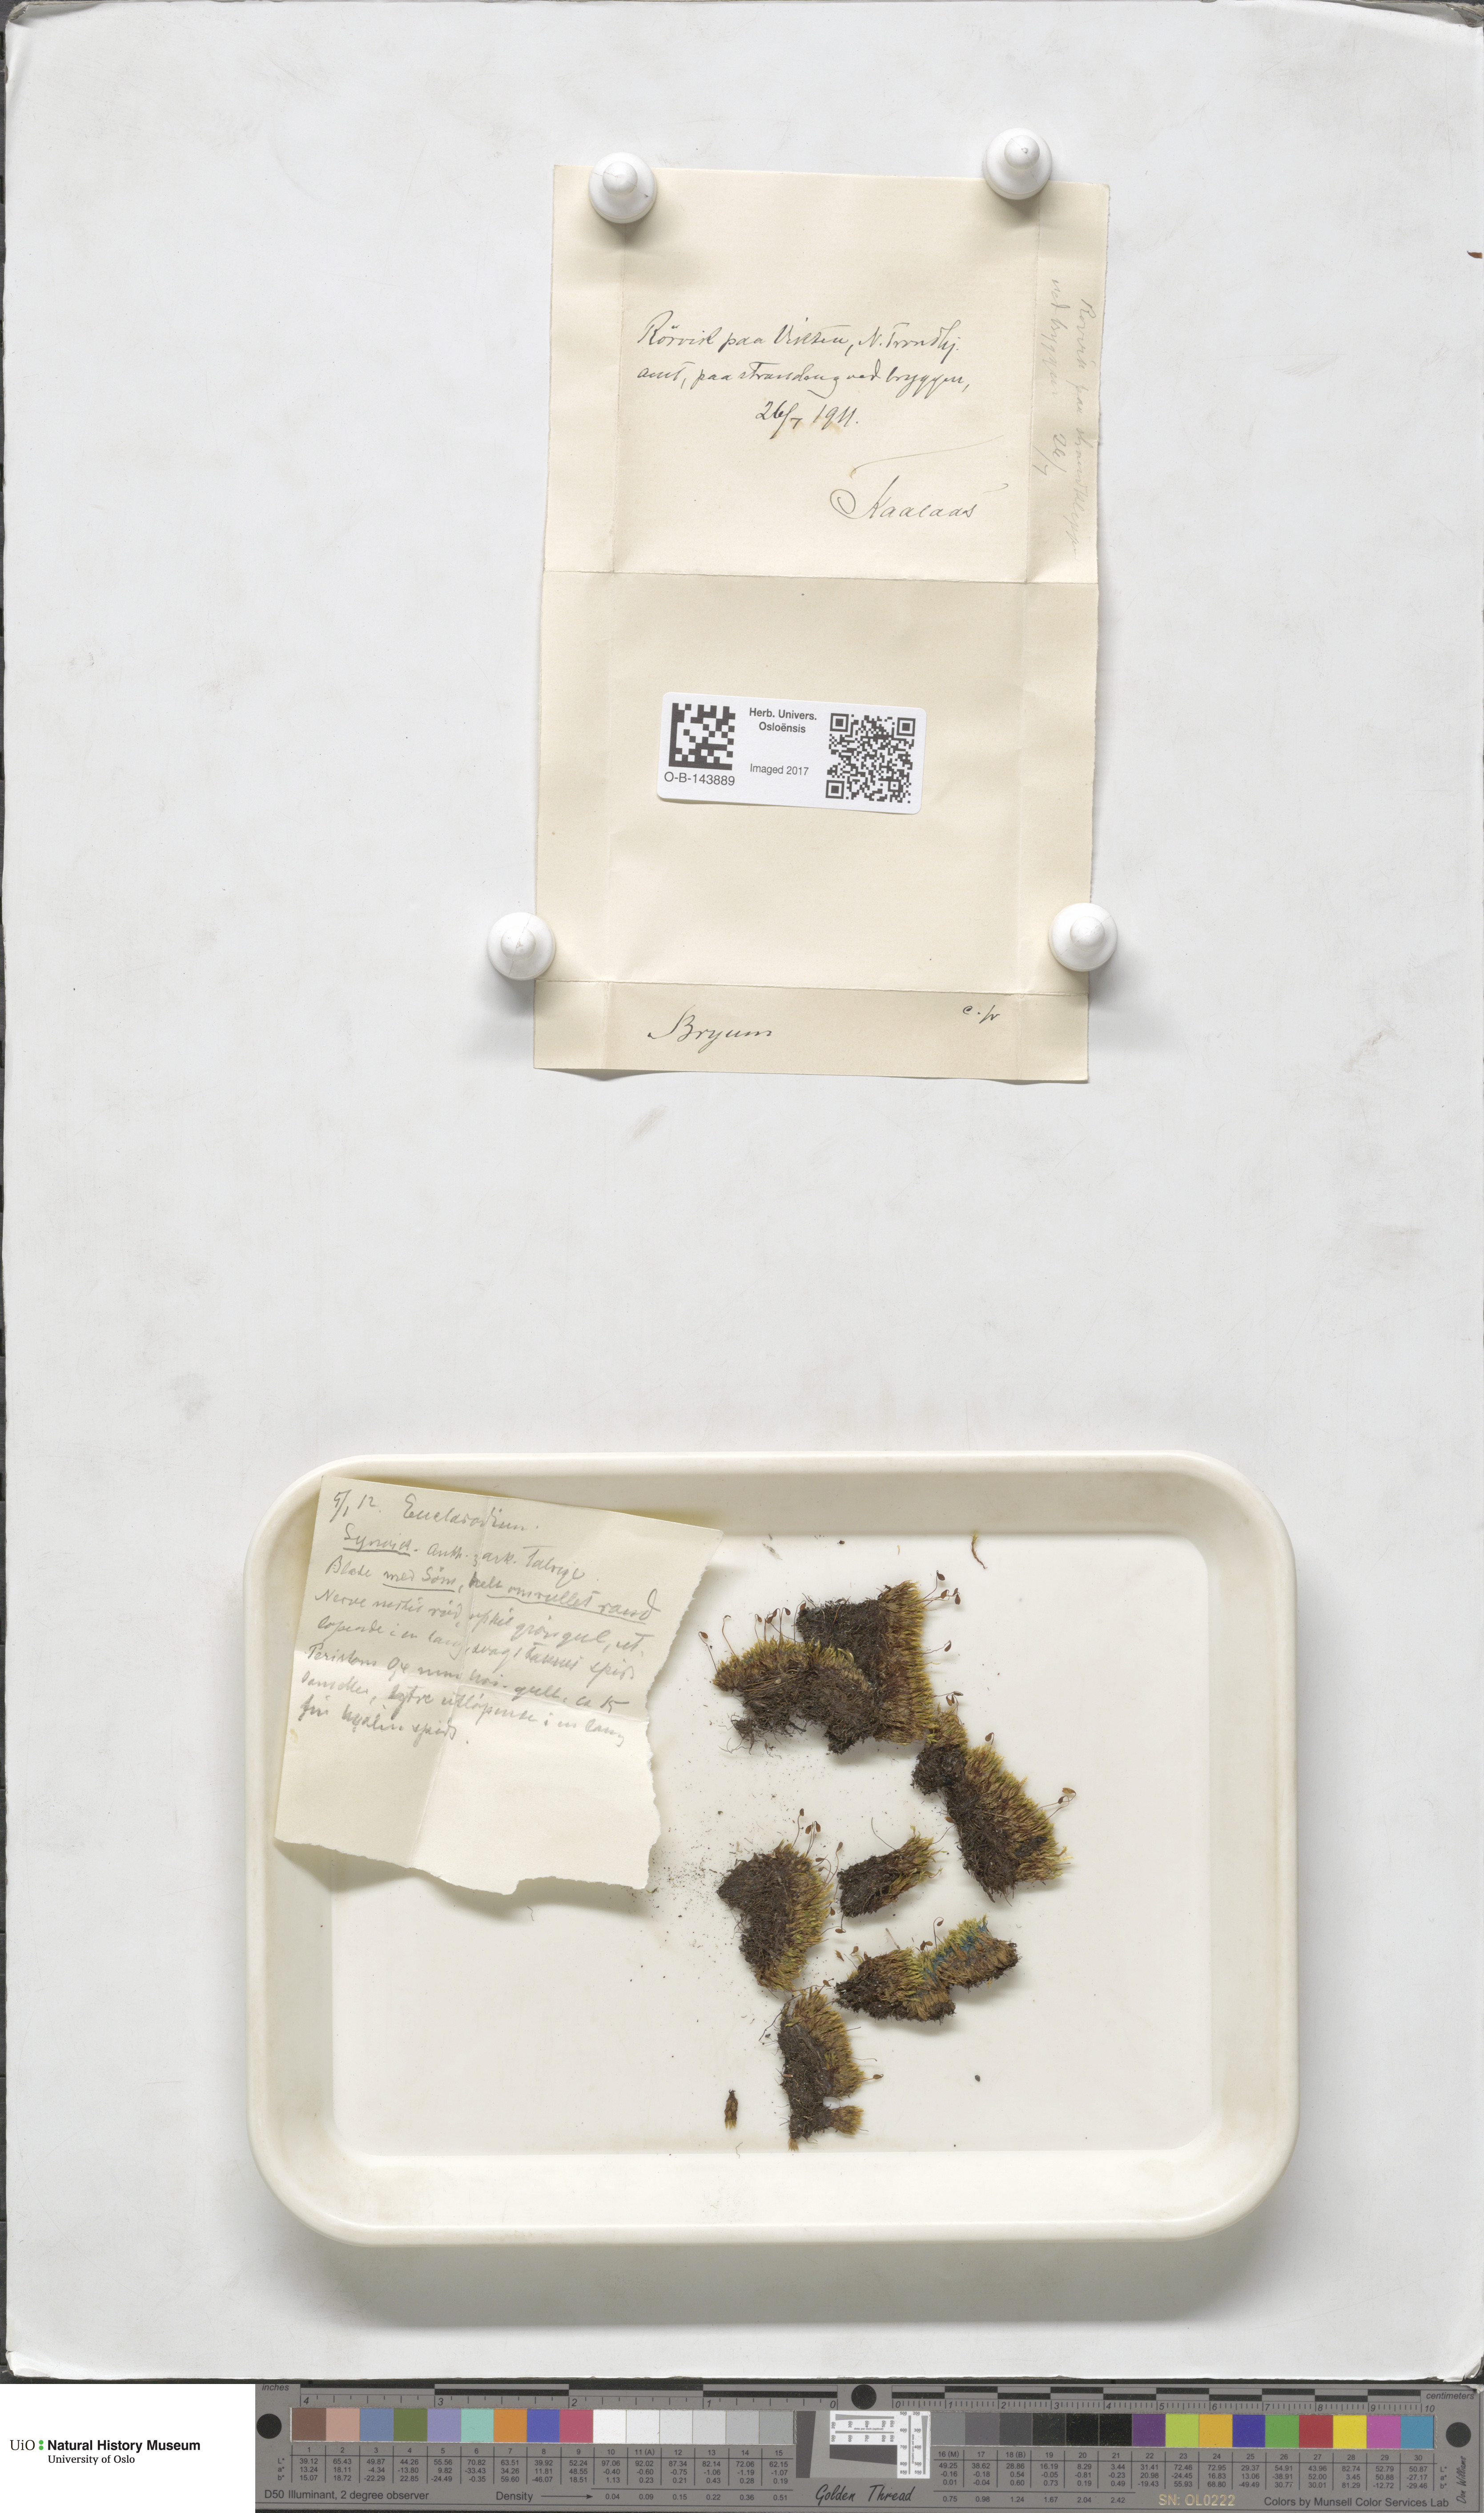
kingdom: Plantae
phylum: Bryophyta
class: Bryopsida
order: Bryales
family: Bryaceae
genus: Bryum
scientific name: Bryum
